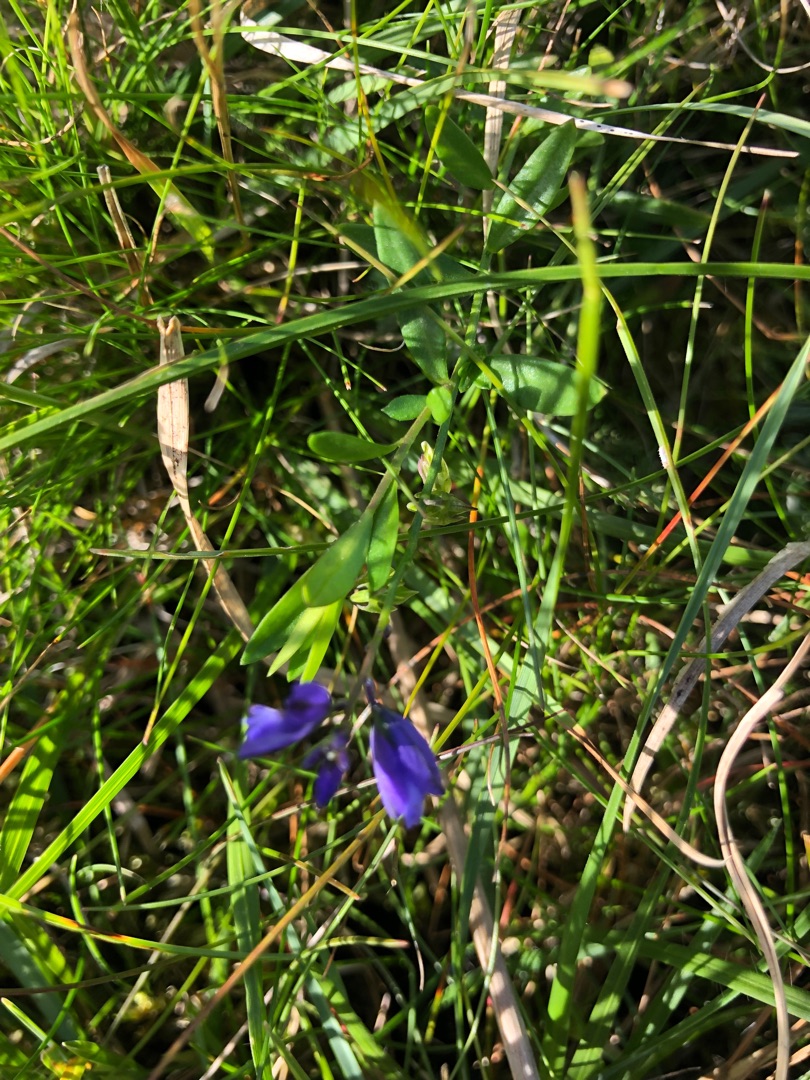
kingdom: Plantae
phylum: Tracheophyta
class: Magnoliopsida
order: Fabales
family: Polygalaceae
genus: Polygala
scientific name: Polygala vulgaris
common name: Almindelig mælkeurt
